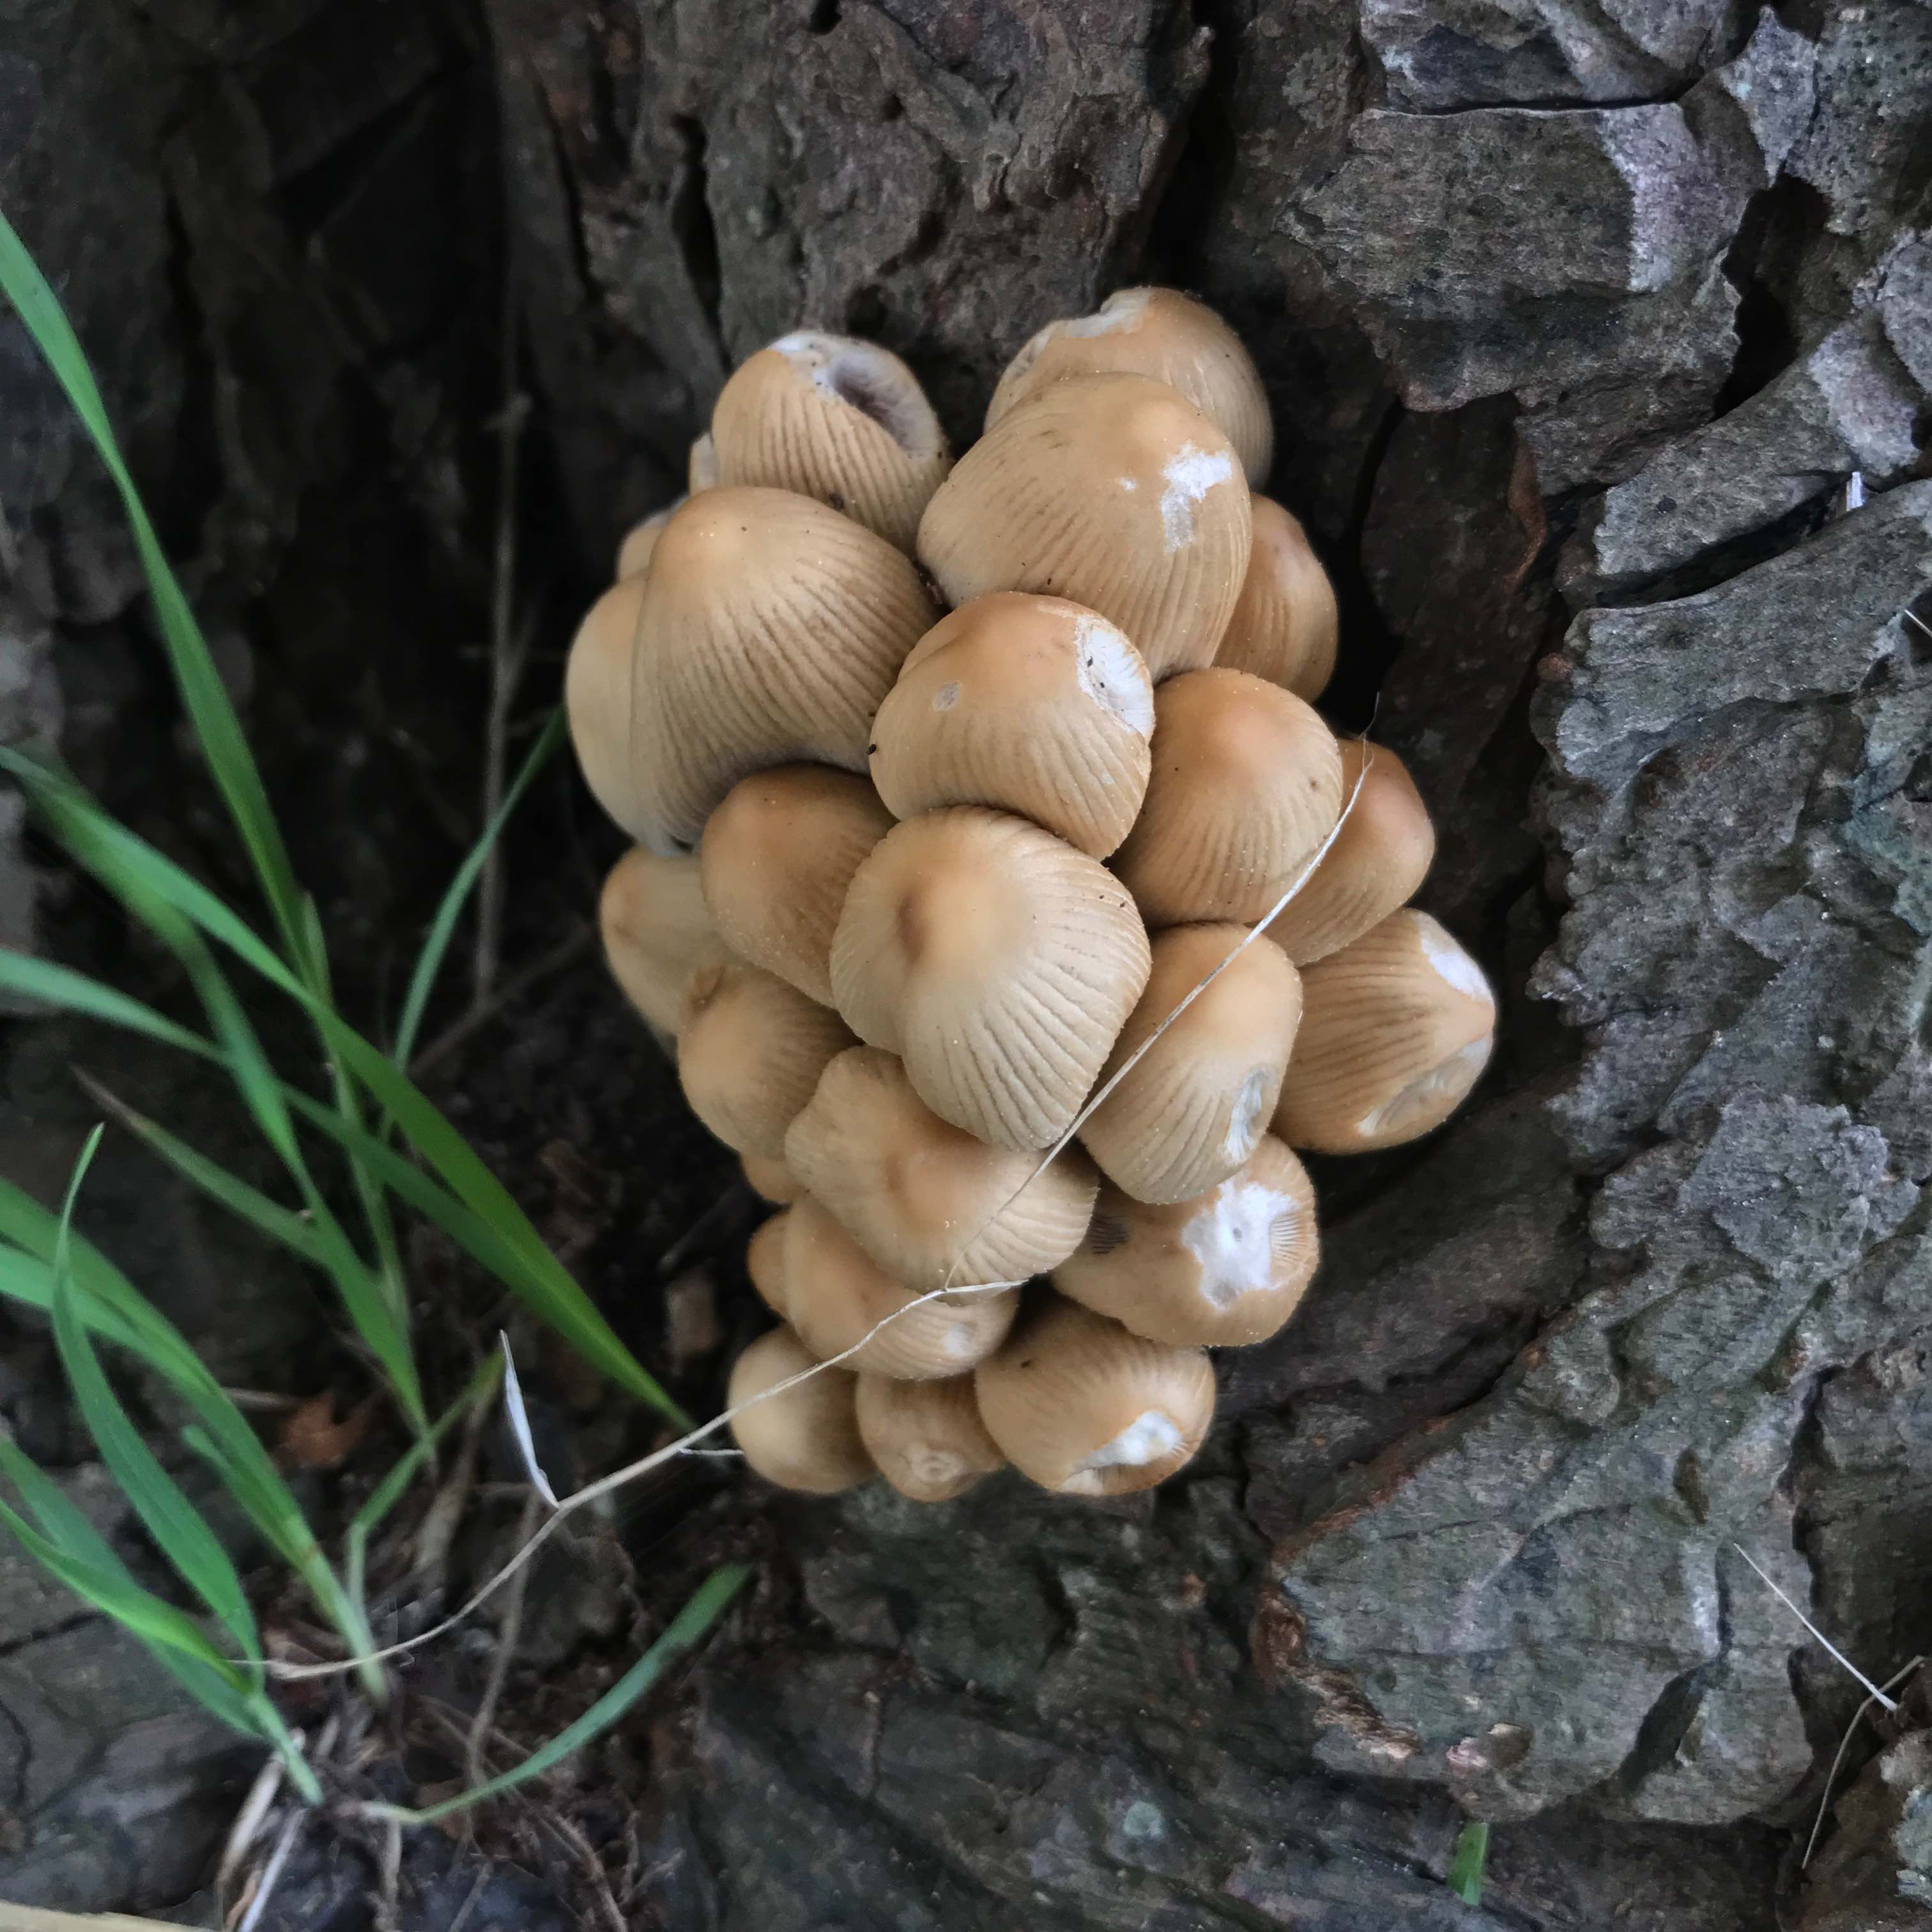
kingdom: Fungi
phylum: Basidiomycota
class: Agaricomycetes
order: Agaricales
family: Psathyrellaceae
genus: Coprinellus
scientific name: Coprinellus micaceus
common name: glimmer-blækhat
